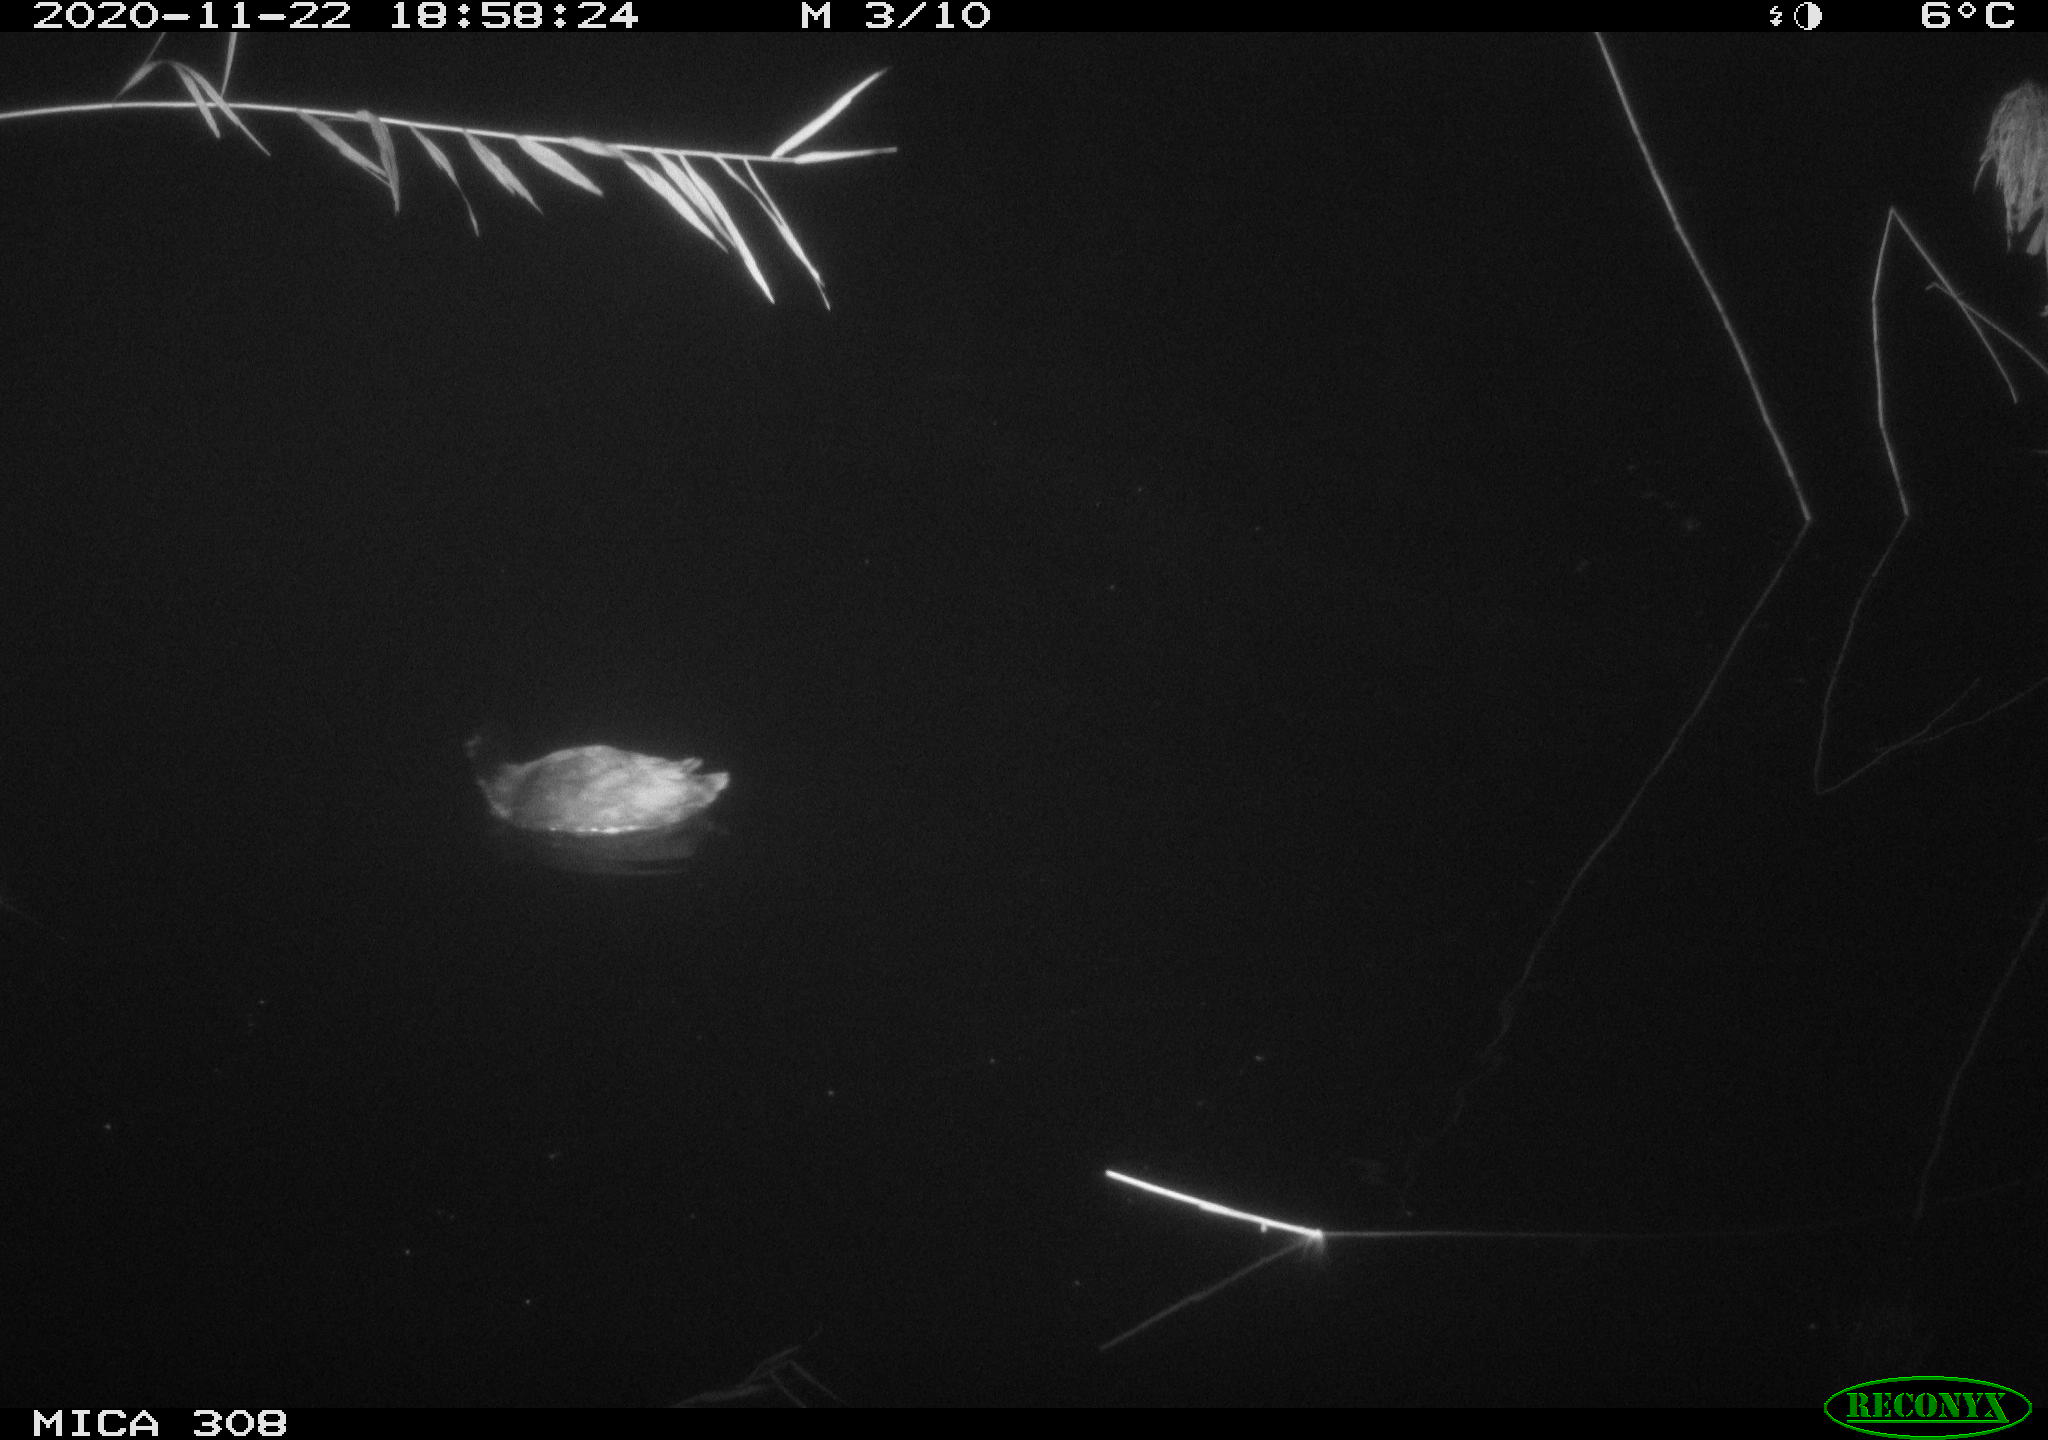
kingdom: Animalia
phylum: Chordata
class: Aves
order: Gruiformes
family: Rallidae
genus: Fulica
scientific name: Fulica atra
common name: Eurasian coot
